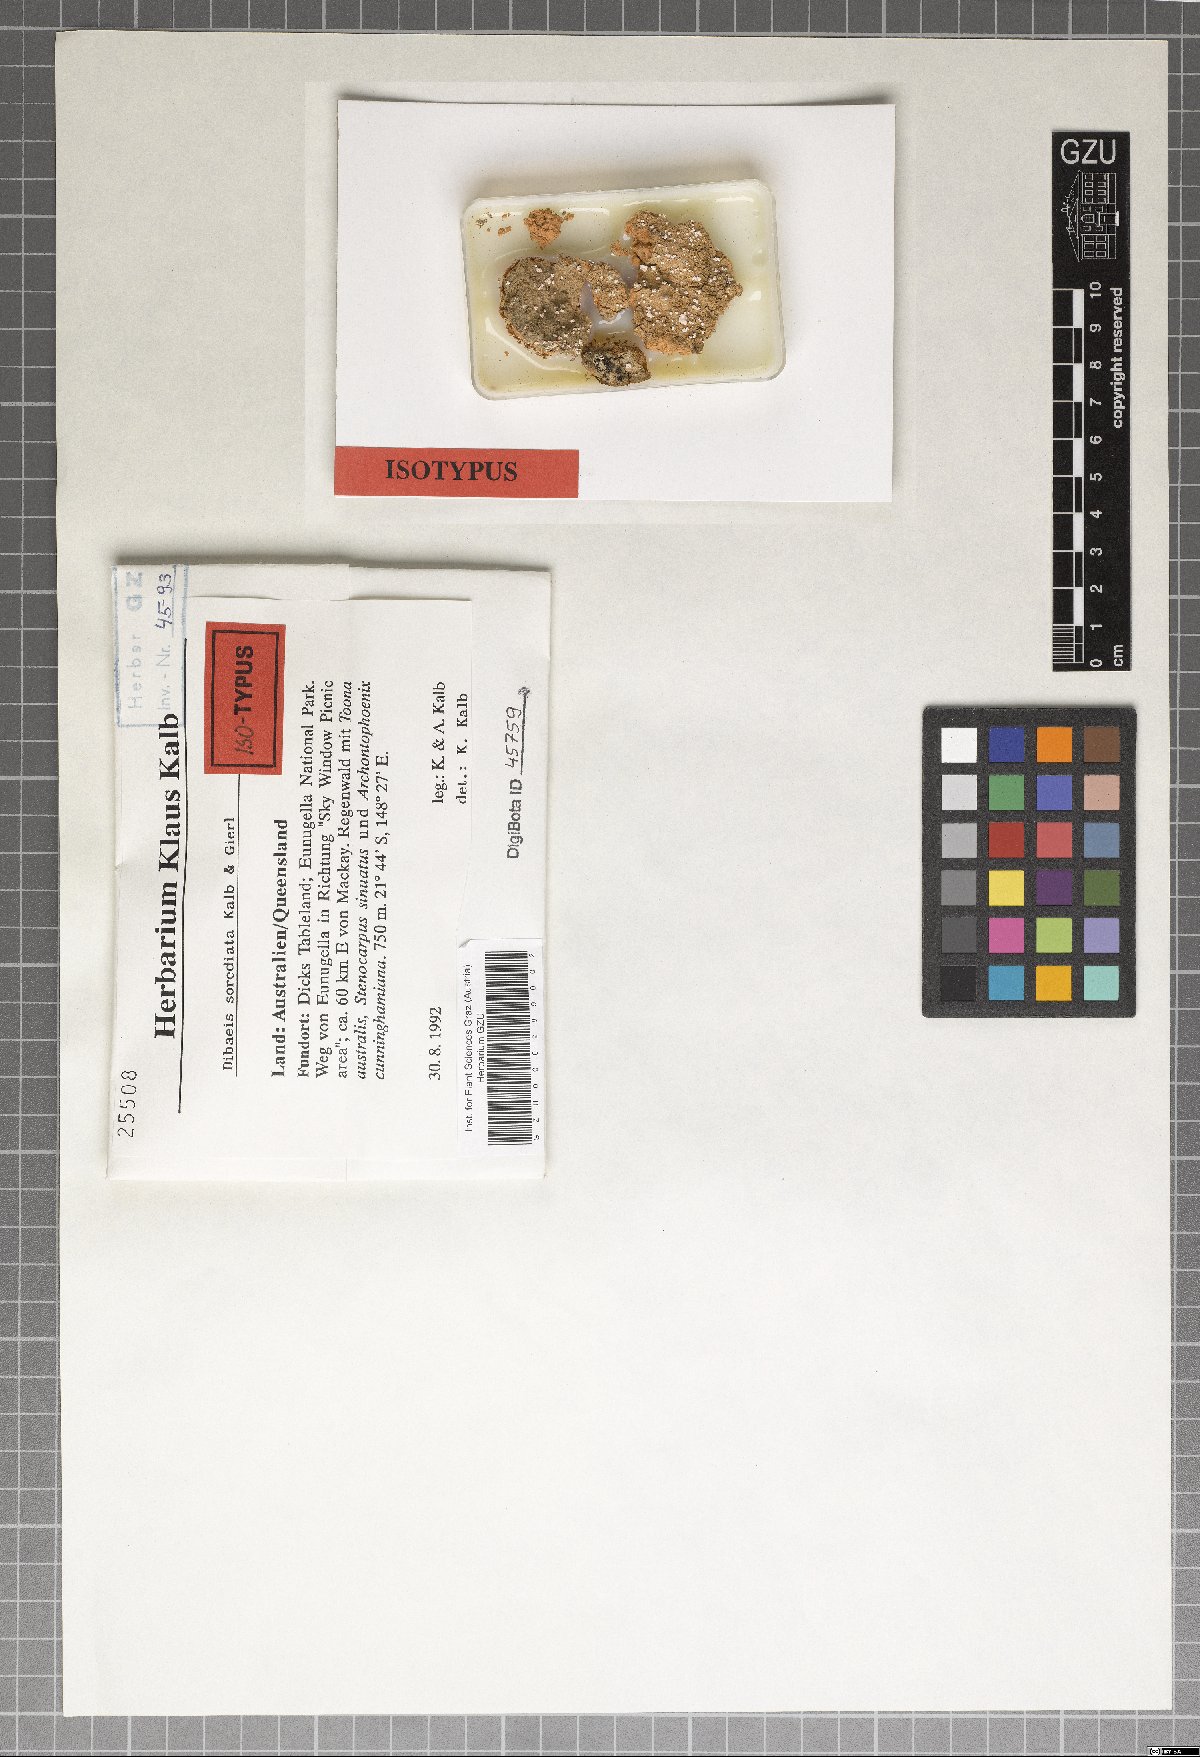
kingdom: Fungi
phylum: Ascomycota
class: Lecanoromycetes
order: Pertusariales
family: Icmadophilaceae
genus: Dibaeis
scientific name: Dibaeis sorediata
